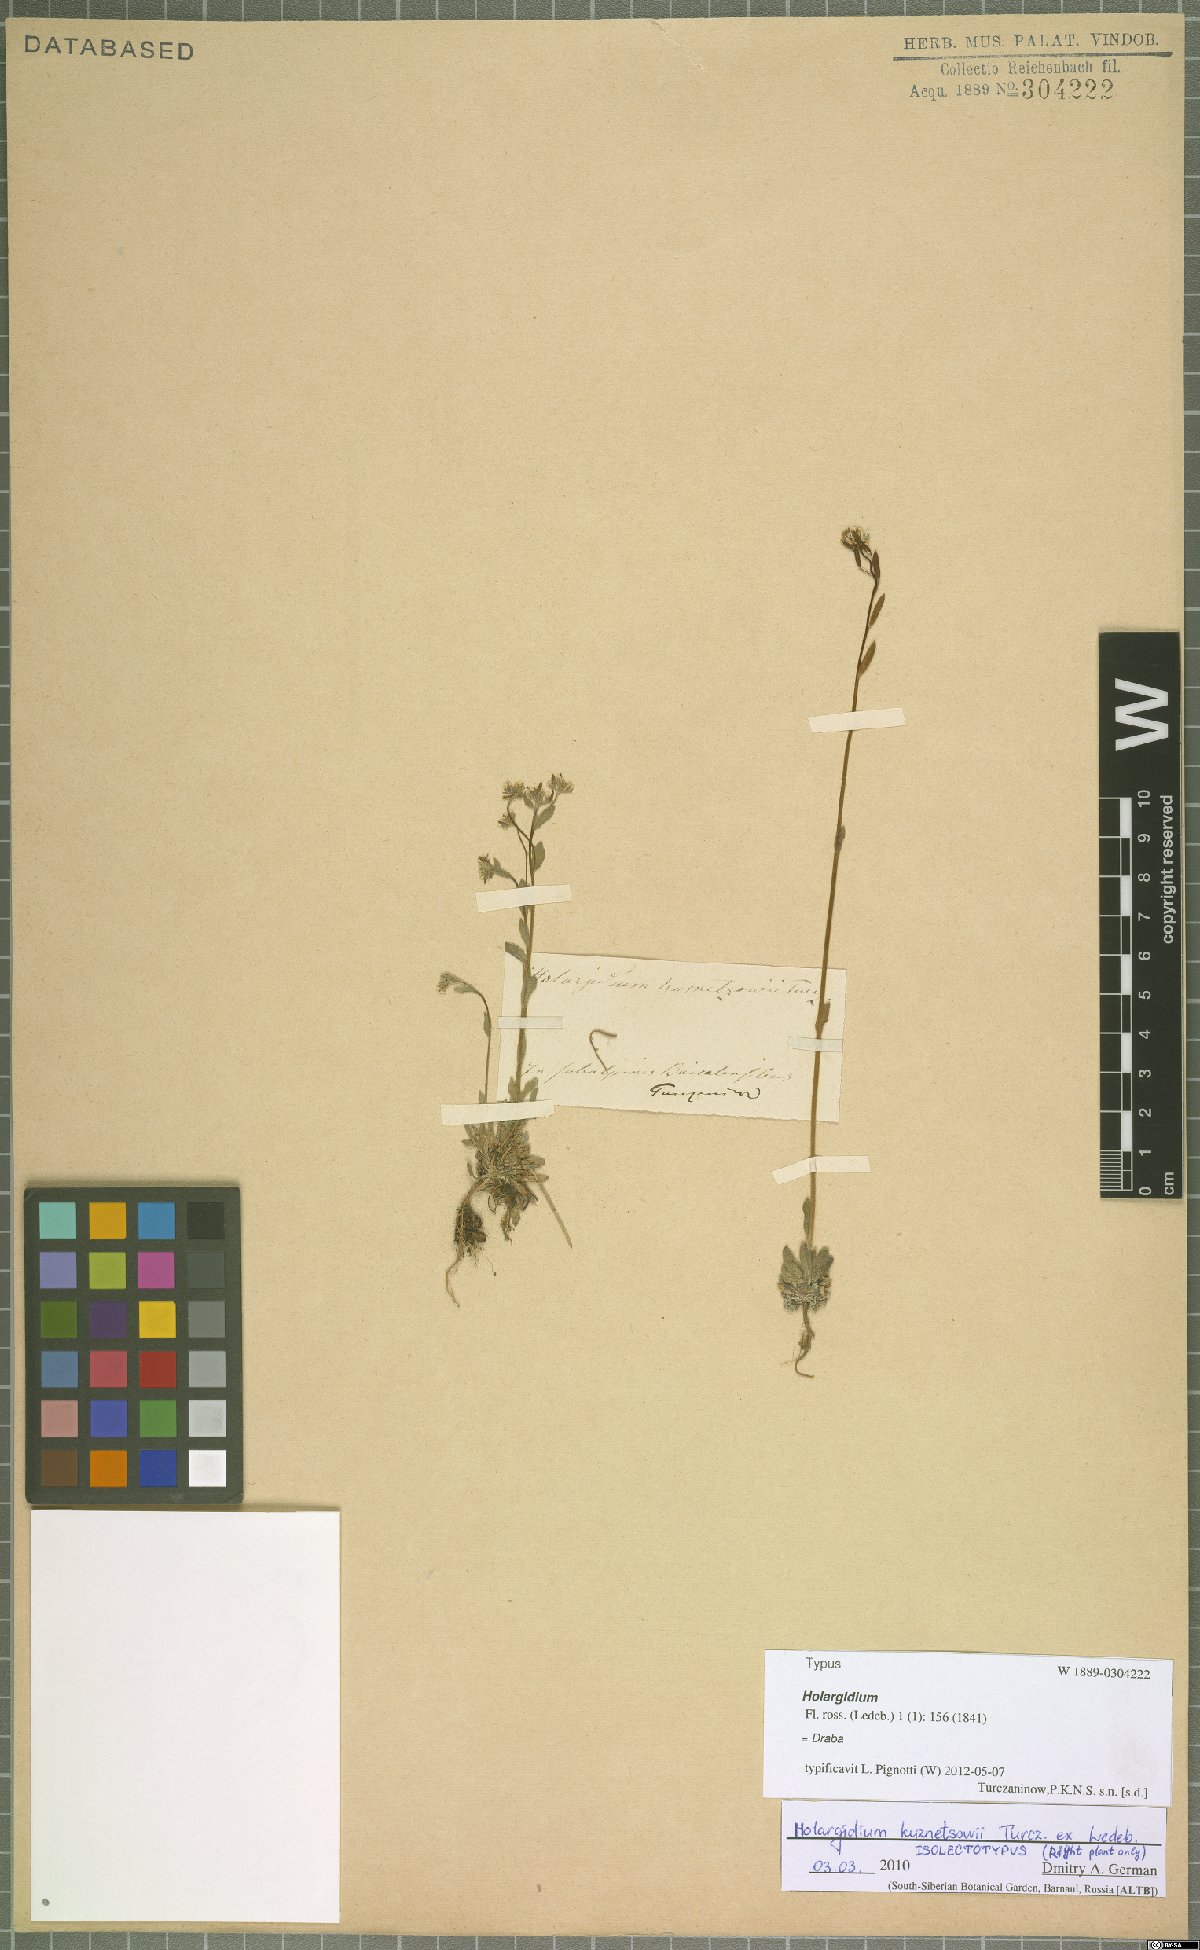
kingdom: Plantae
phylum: Tracheophyta
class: Magnoliopsida
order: Brassicales
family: Brassicaceae
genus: Draba
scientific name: Draba kusnetzowii
